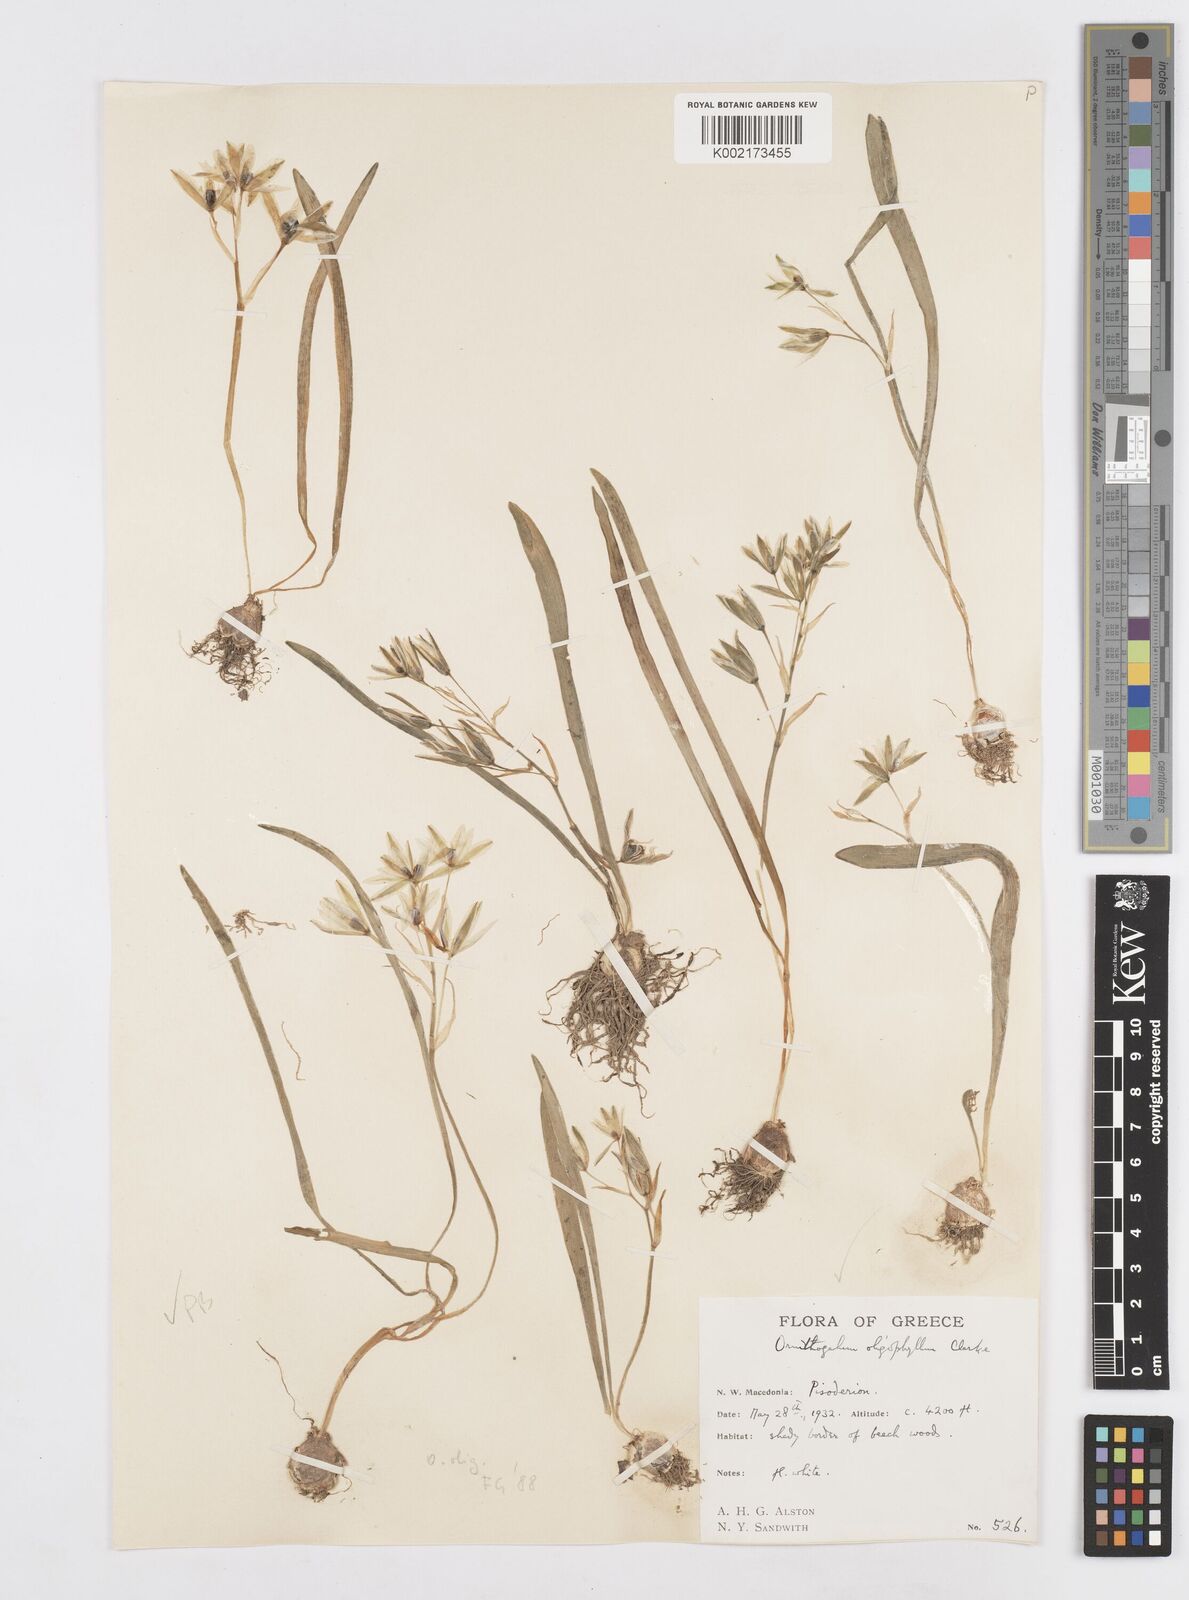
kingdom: Plantae
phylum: Tracheophyta
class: Liliopsida
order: Asparagales
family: Asparagaceae
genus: Ornithogalum
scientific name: Ornithogalum oligophyllum
